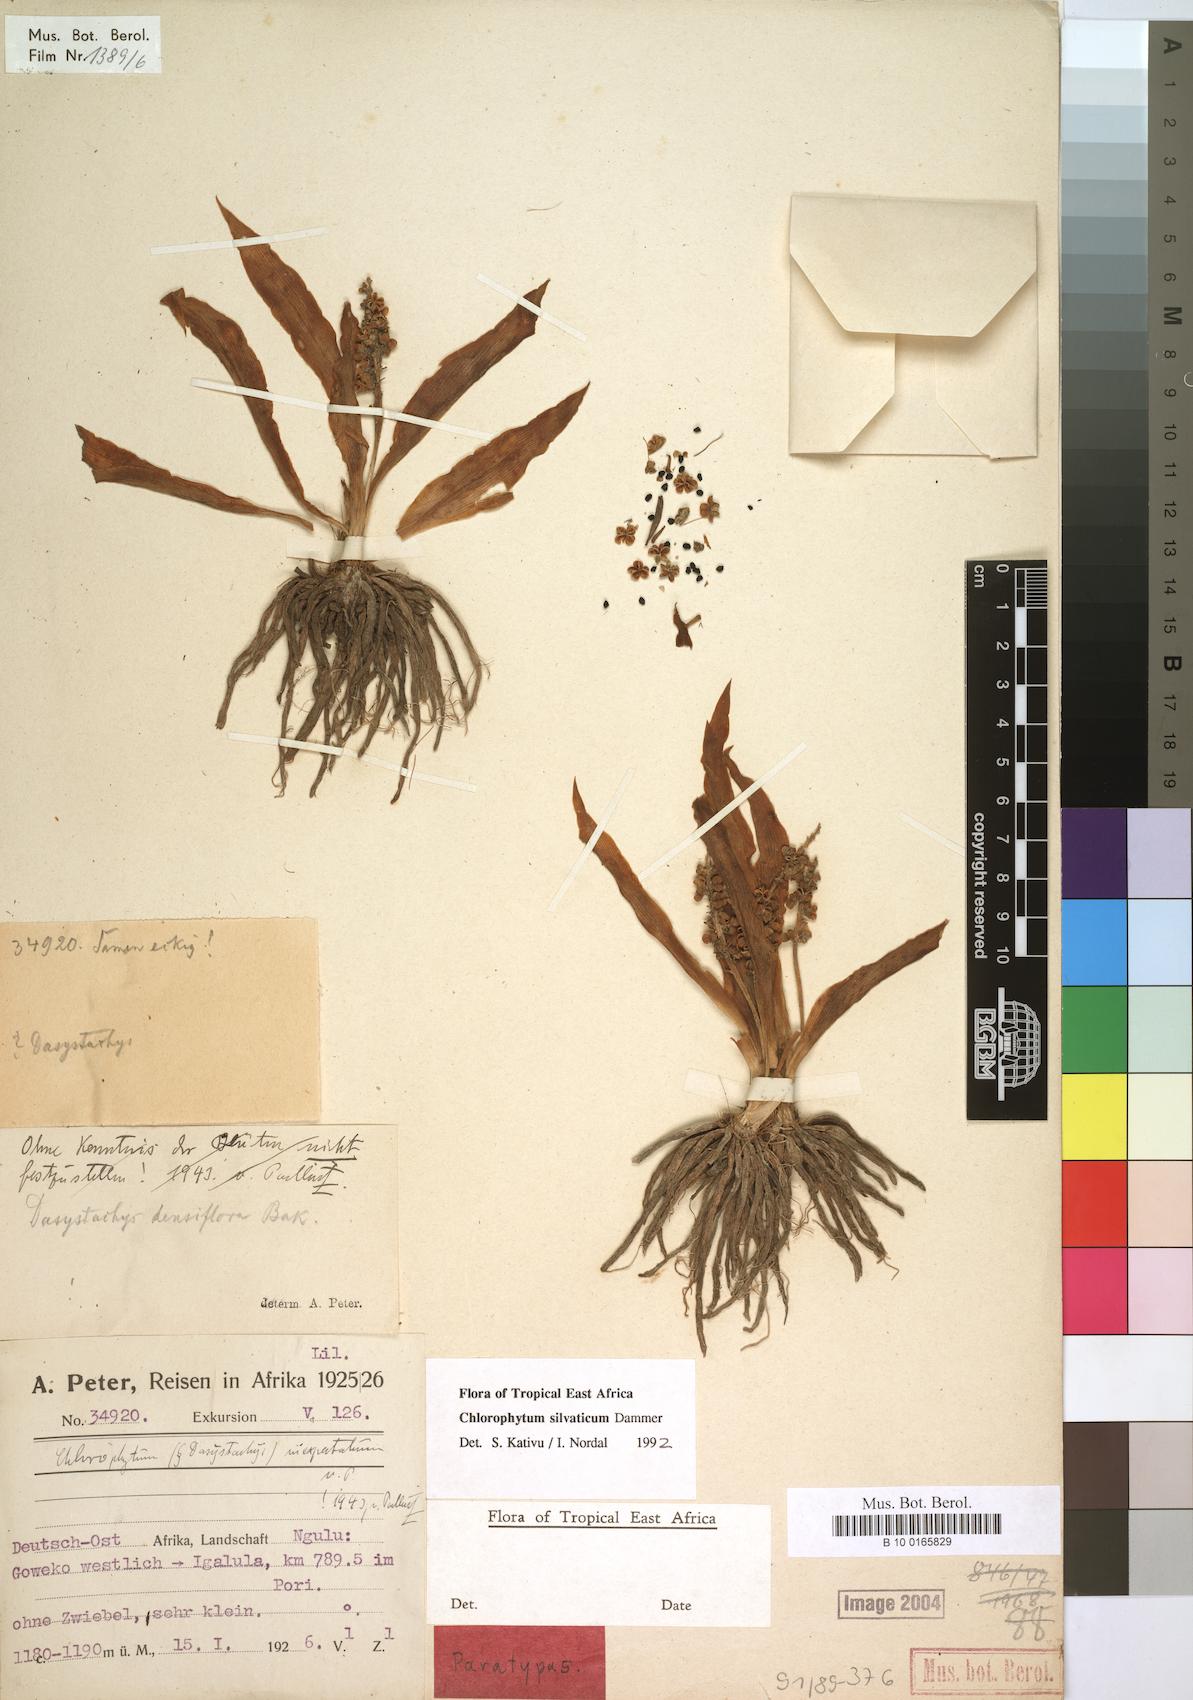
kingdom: Plantae
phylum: Tracheophyta
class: Liliopsida
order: Asparagales
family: Asparagaceae
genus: Chlorophytum
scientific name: Chlorophytum africanum
